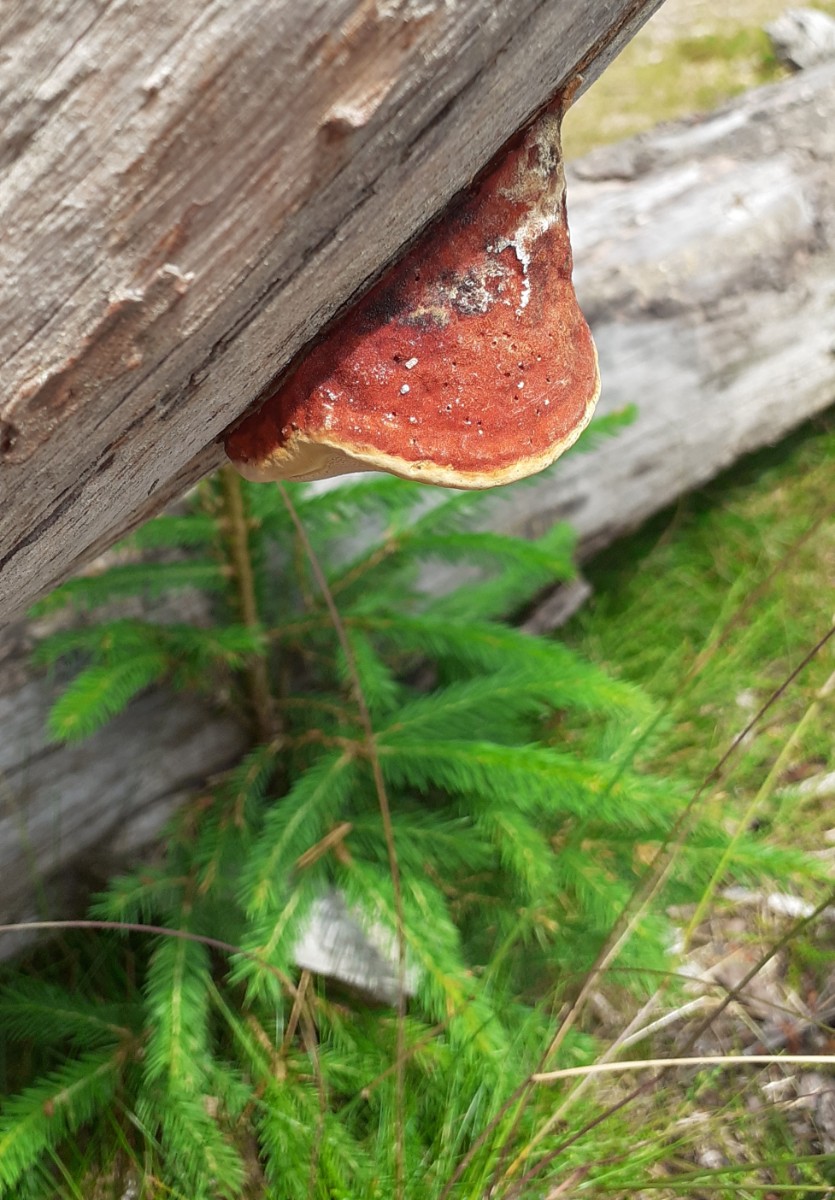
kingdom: Fungi
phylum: Basidiomycota
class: Agaricomycetes
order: Polyporales
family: Fomitopsidaceae
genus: Fomitopsis
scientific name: Fomitopsis pinicola
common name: randbæltet hovporesvamp
